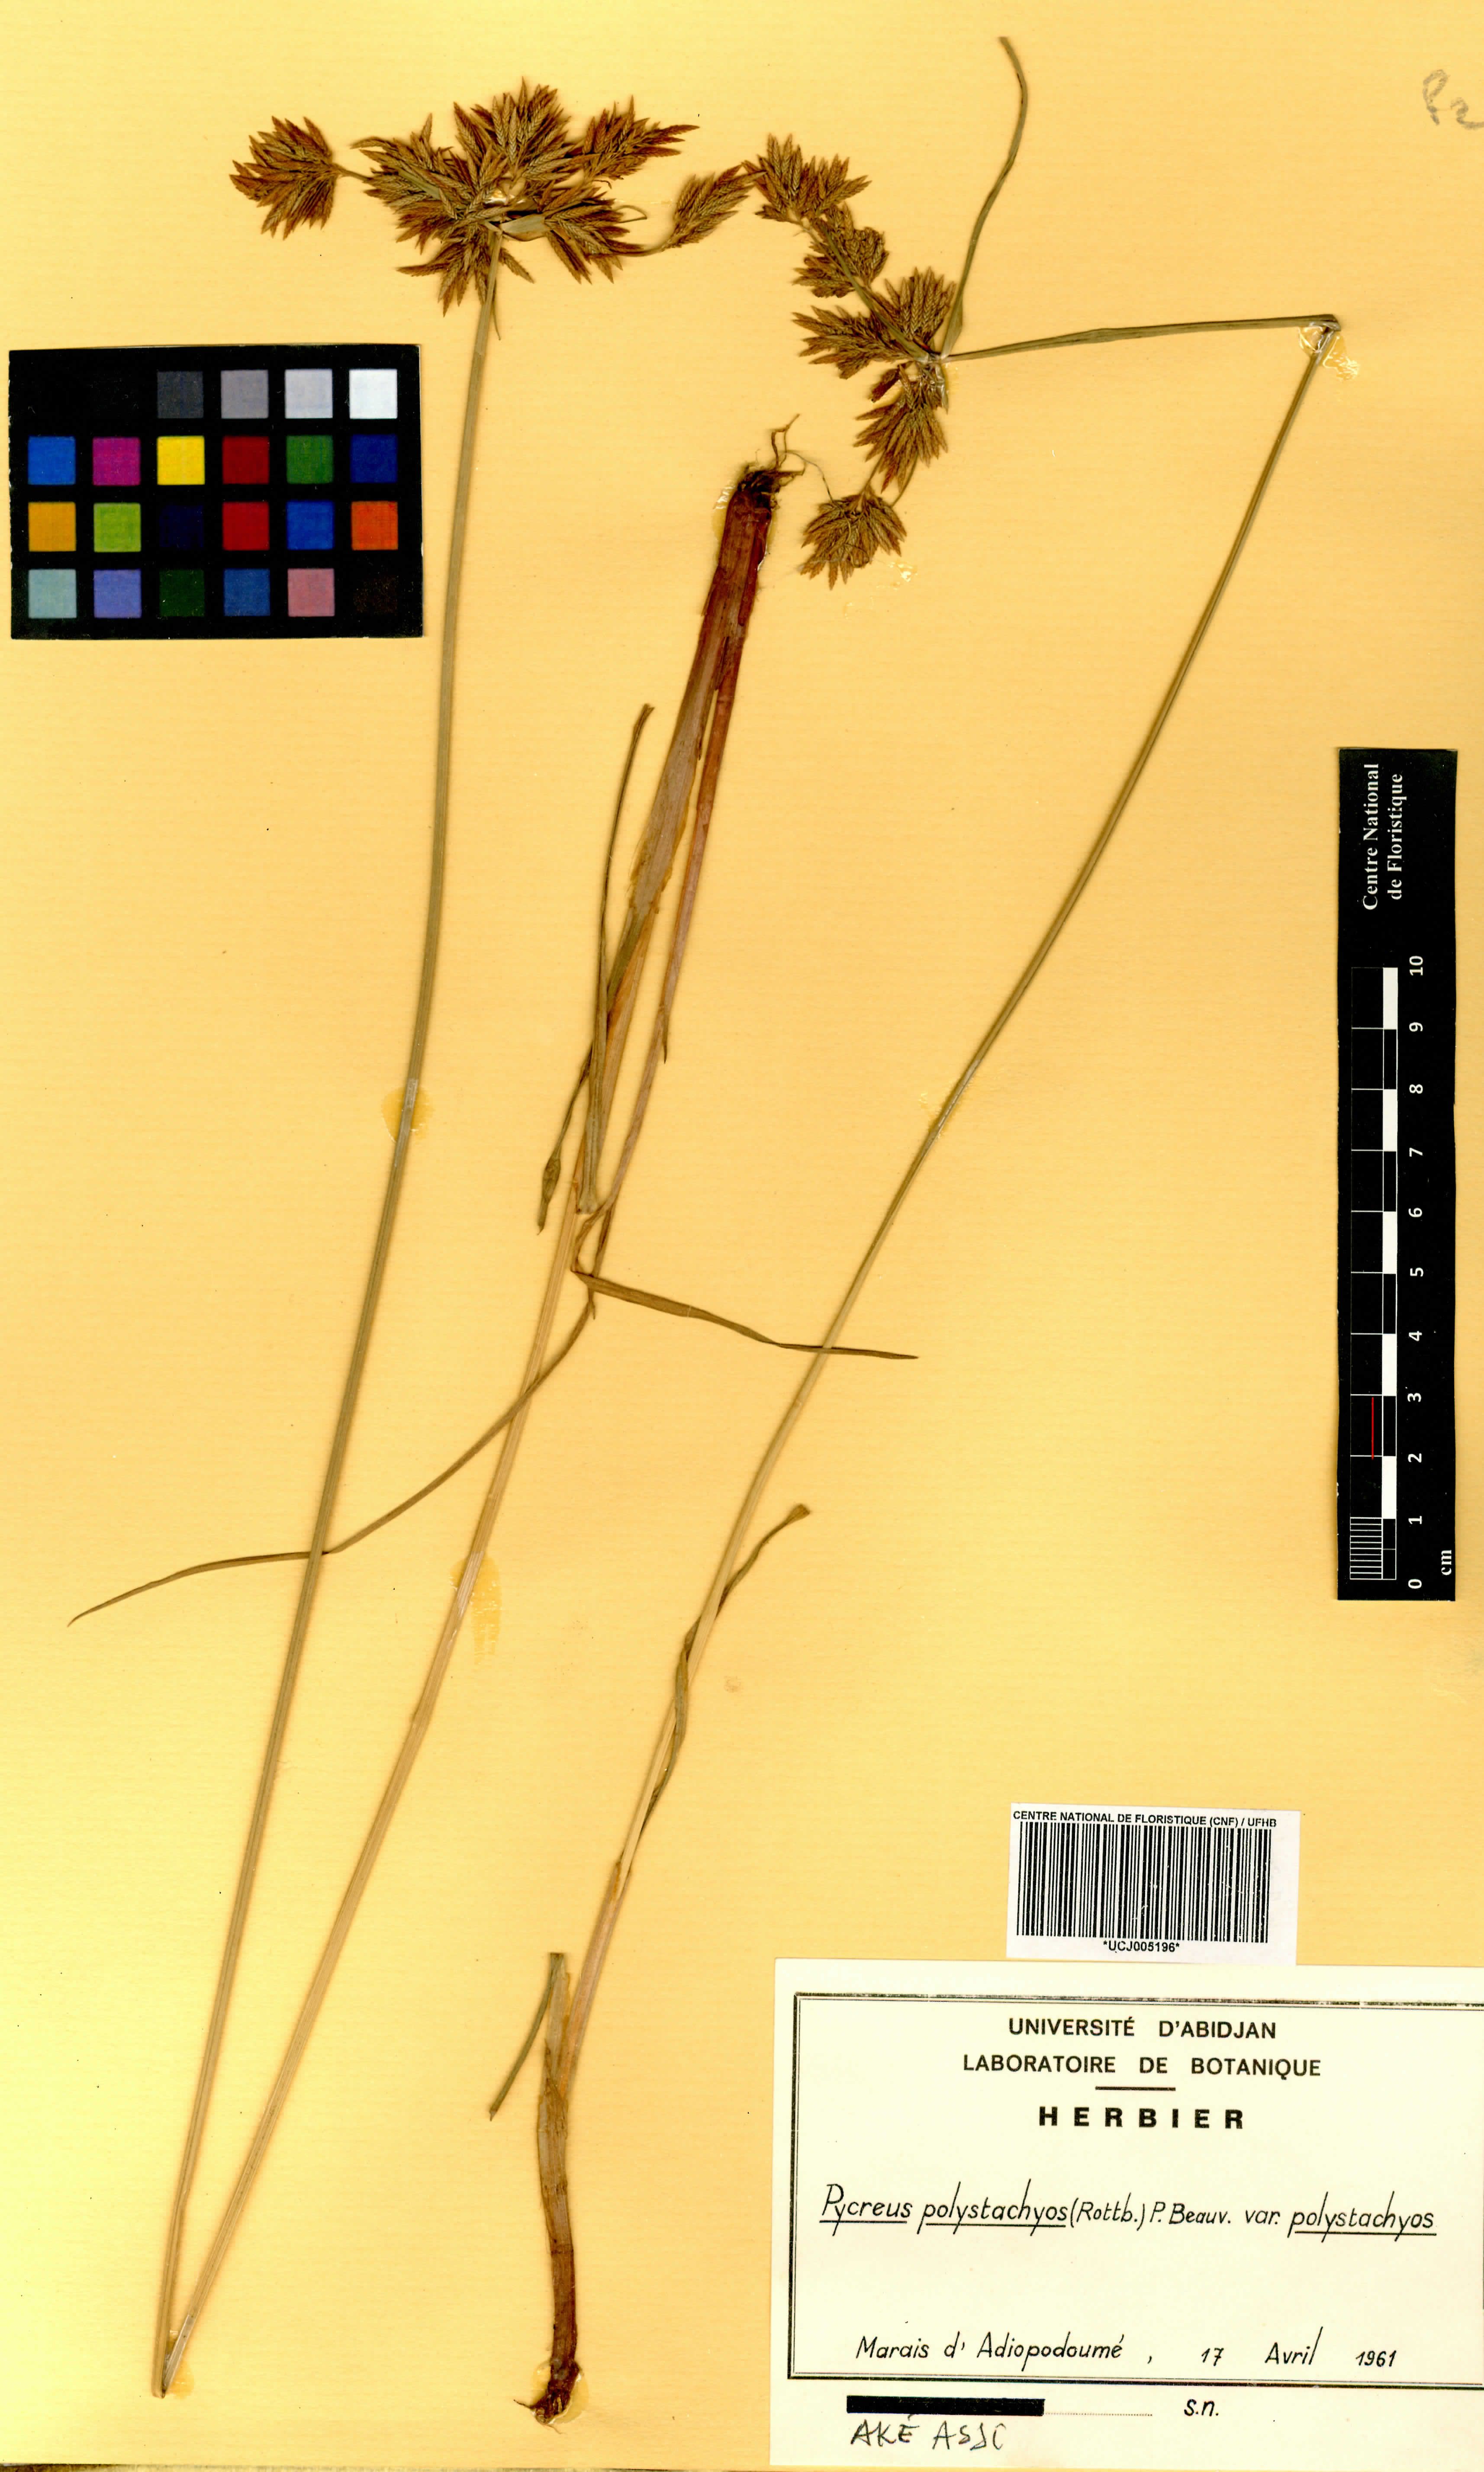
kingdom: Plantae
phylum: Tracheophyta
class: Liliopsida
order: Poales
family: Cyperaceae
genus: Cyperus
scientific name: Cyperus polystachyos
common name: Bunchy flat sedge
